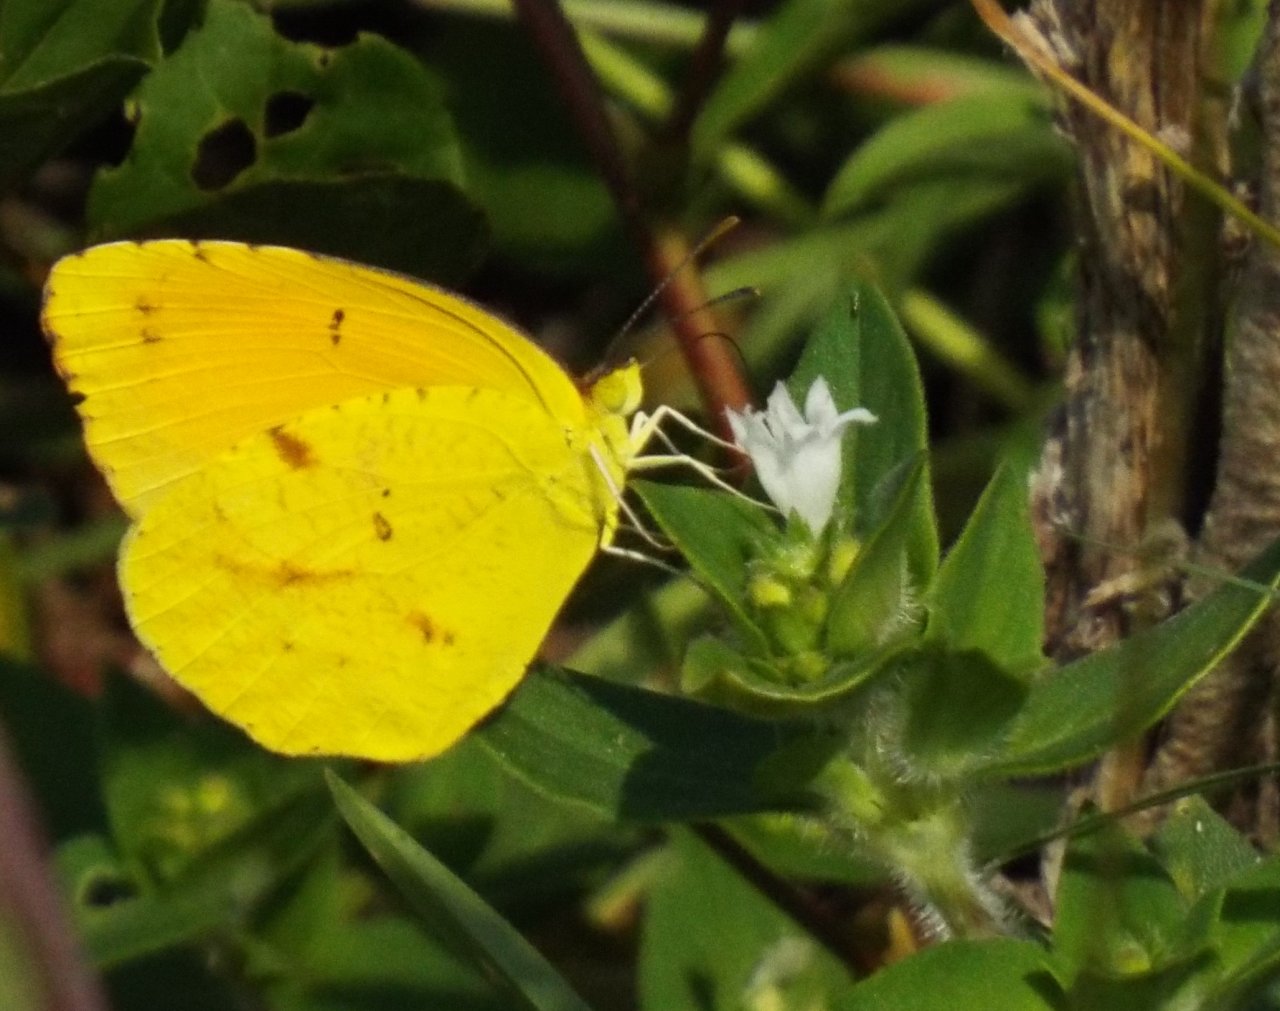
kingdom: Animalia
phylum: Arthropoda
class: Insecta
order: Lepidoptera
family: Pieridae
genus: Abaeis
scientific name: Abaeis nicippe
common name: Sleepy Orange
